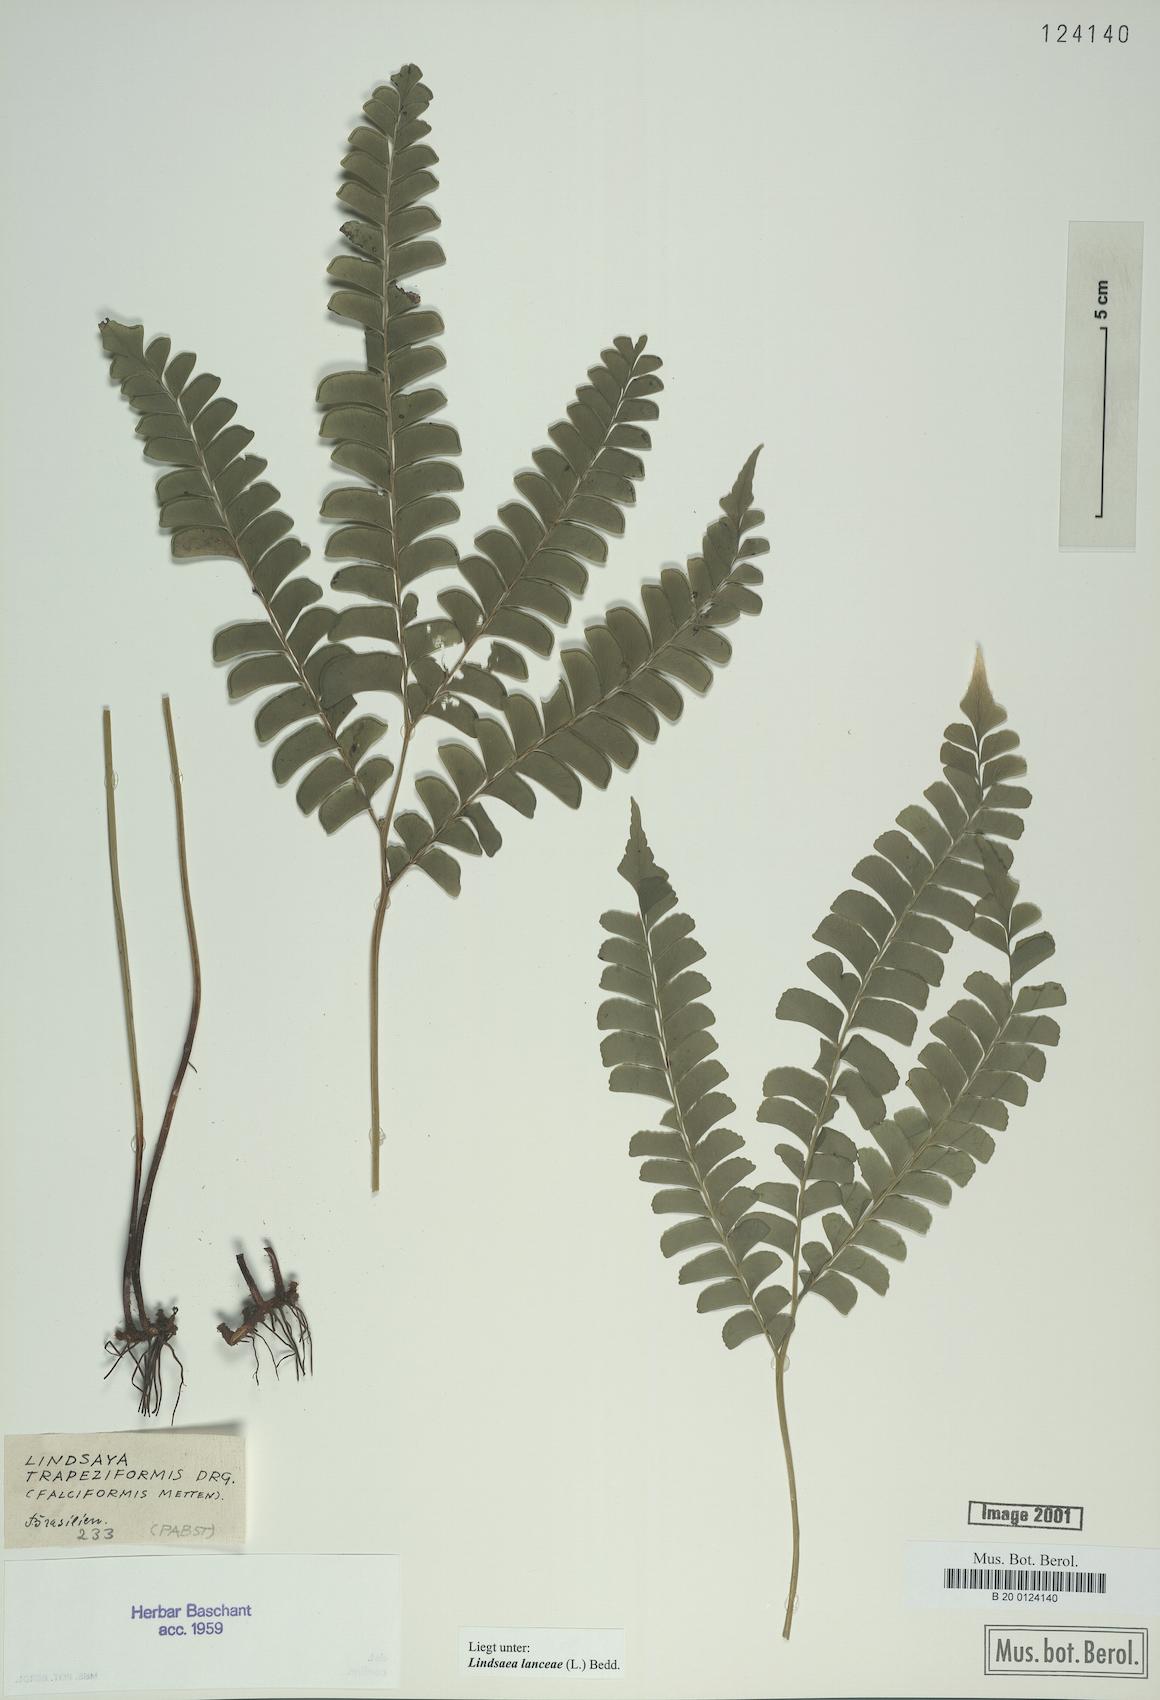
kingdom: Plantae
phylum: Tracheophyta
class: Polypodiopsida
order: Polypodiales
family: Lindsaeaceae
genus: Lindsaea
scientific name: Lindsaea lancea
